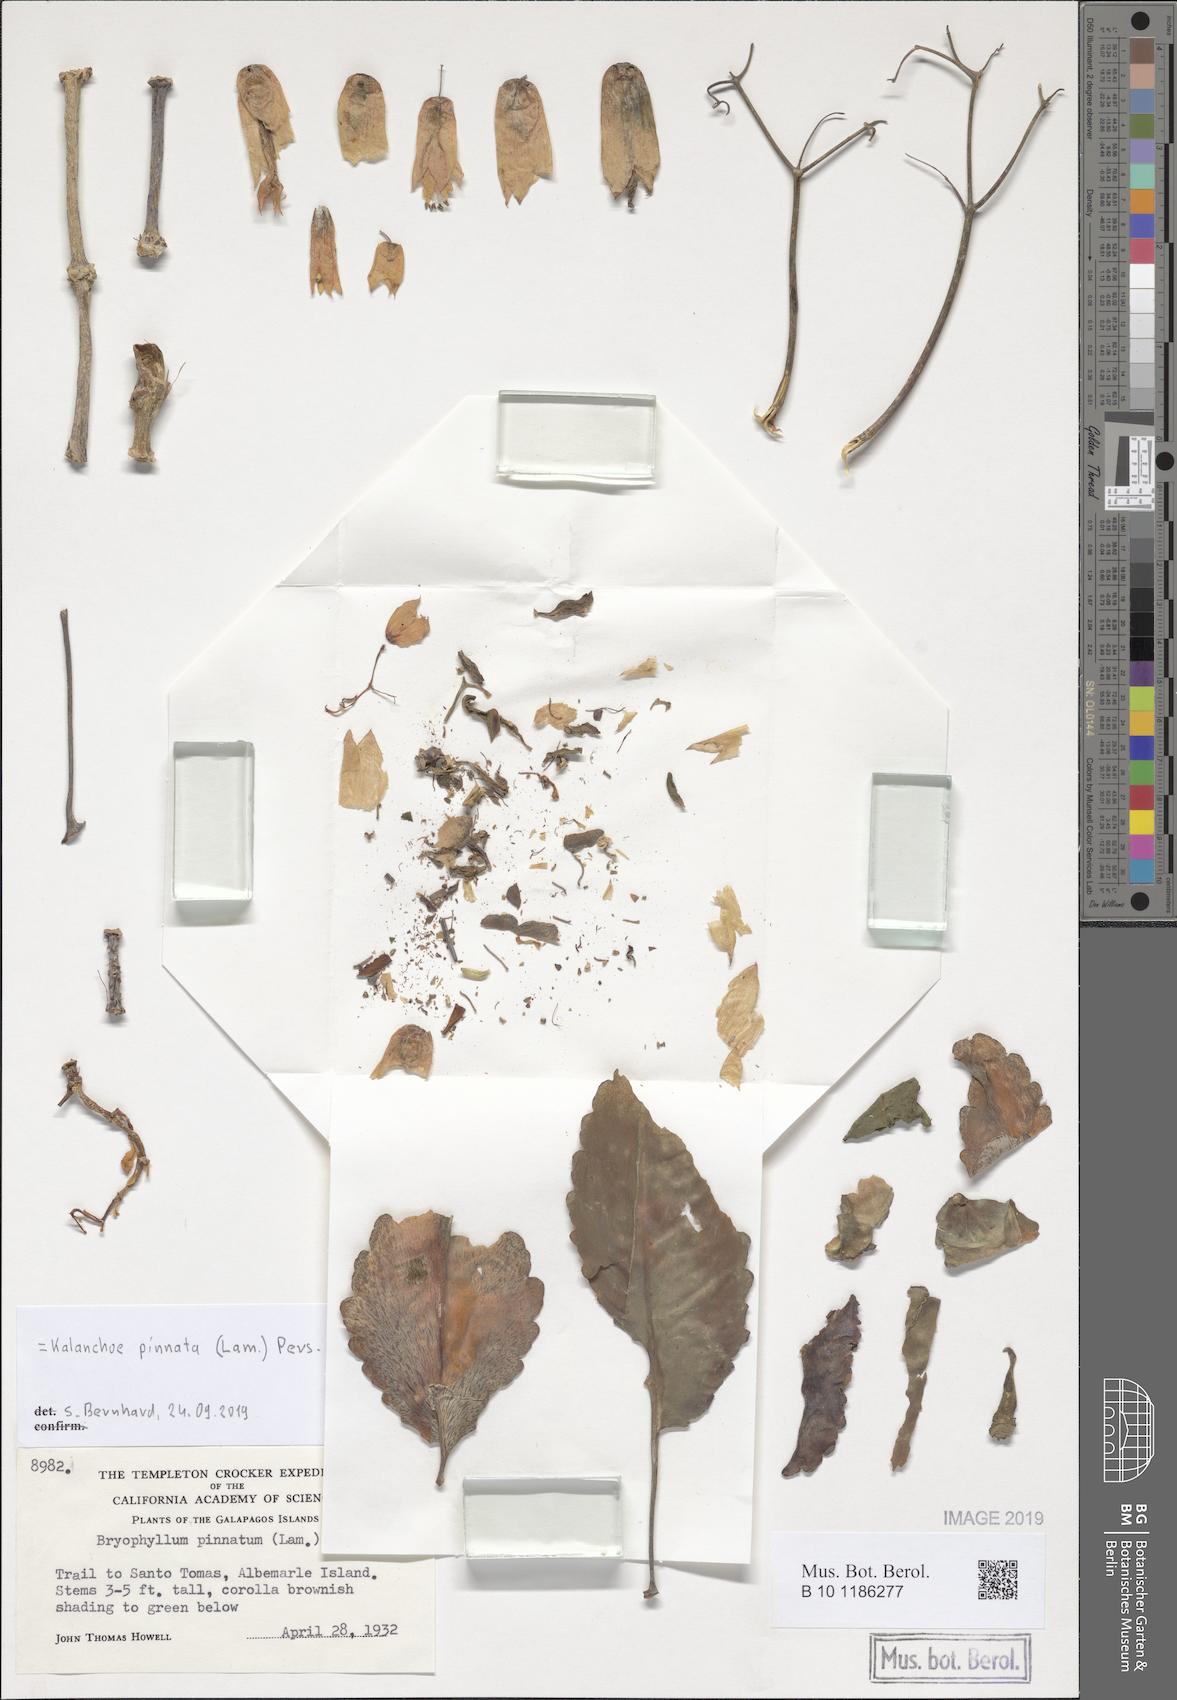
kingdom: Plantae
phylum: Tracheophyta
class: Magnoliopsida
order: Saxifragales
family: Crassulaceae
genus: Kalanchoe
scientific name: Kalanchoe pinnata
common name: Cathedral bells
